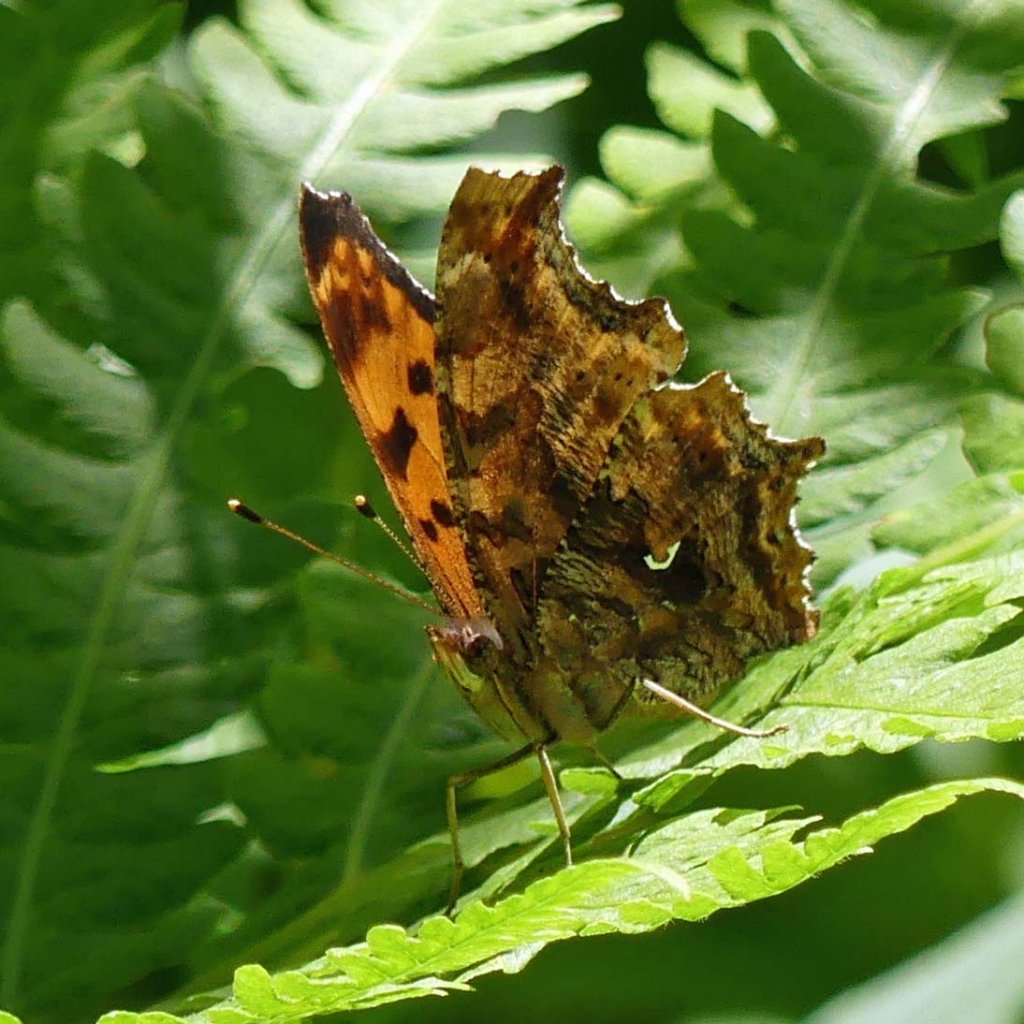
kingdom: Animalia
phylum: Arthropoda
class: Insecta
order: Lepidoptera
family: Nymphalidae
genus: Polygonia
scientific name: Polygonia comma
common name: Eastern Comma
